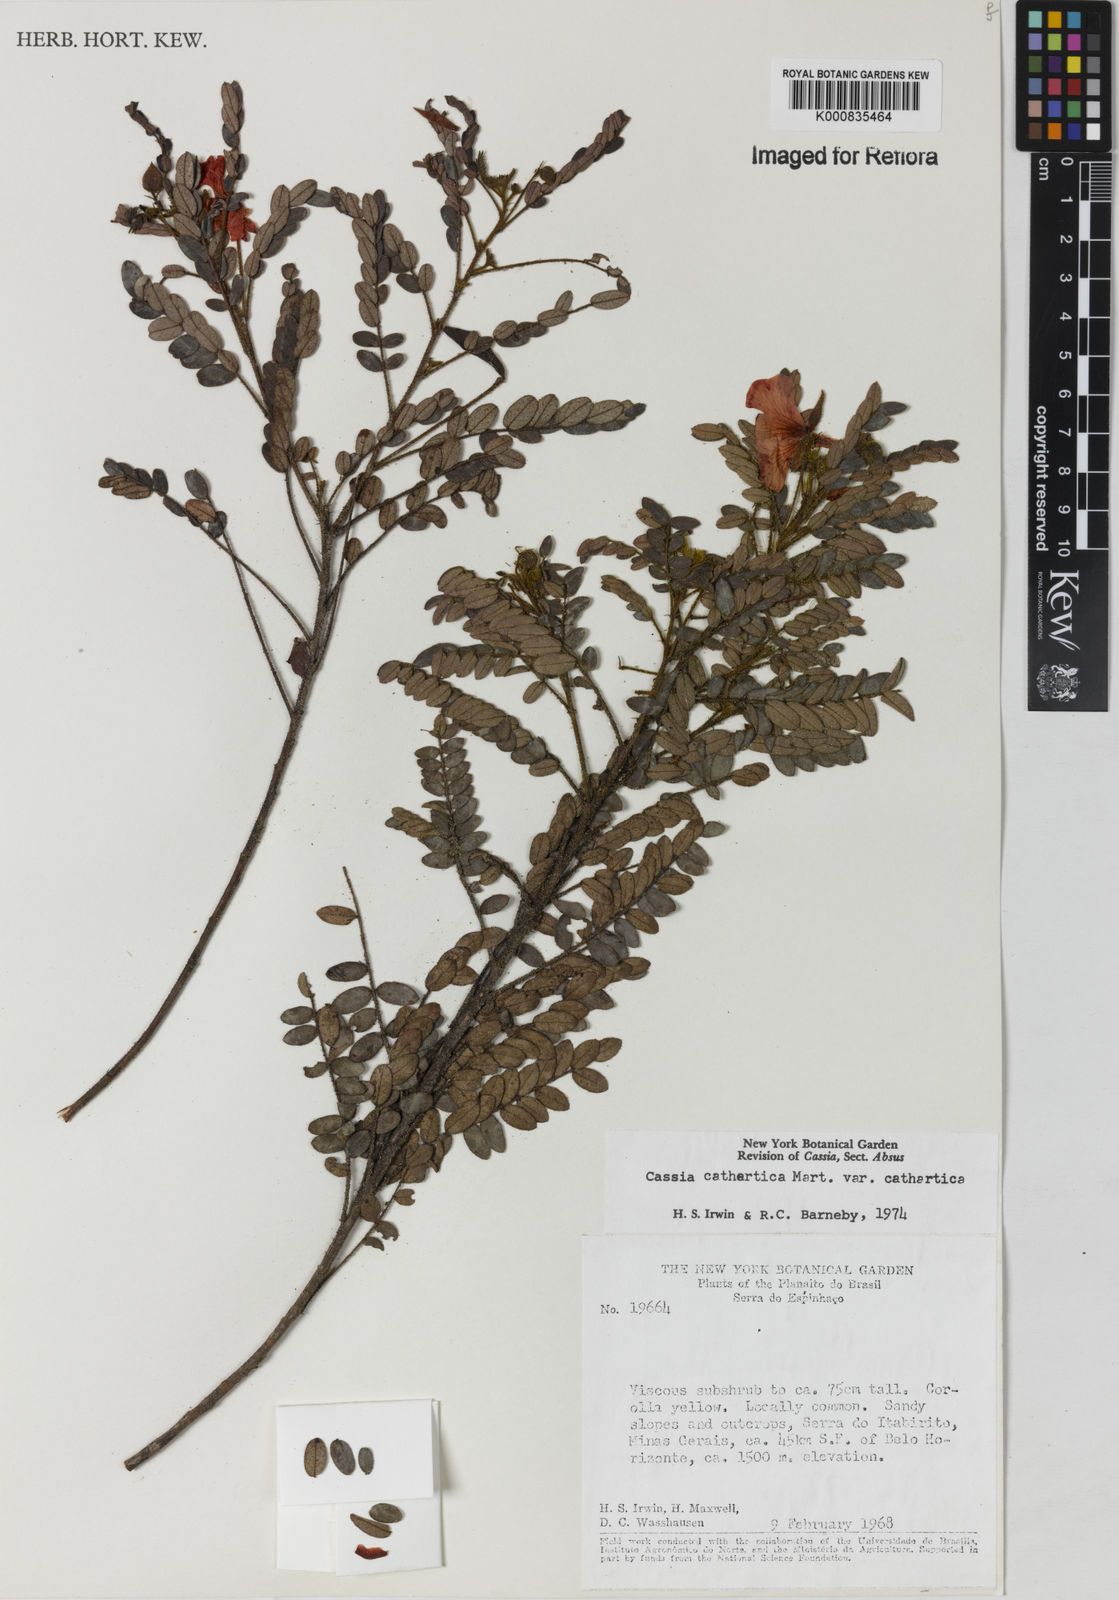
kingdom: Plantae
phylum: Tracheophyta
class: Magnoliopsida
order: Fabales
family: Fabaceae
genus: Chamaecrista
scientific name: Chamaecrista cathartica
